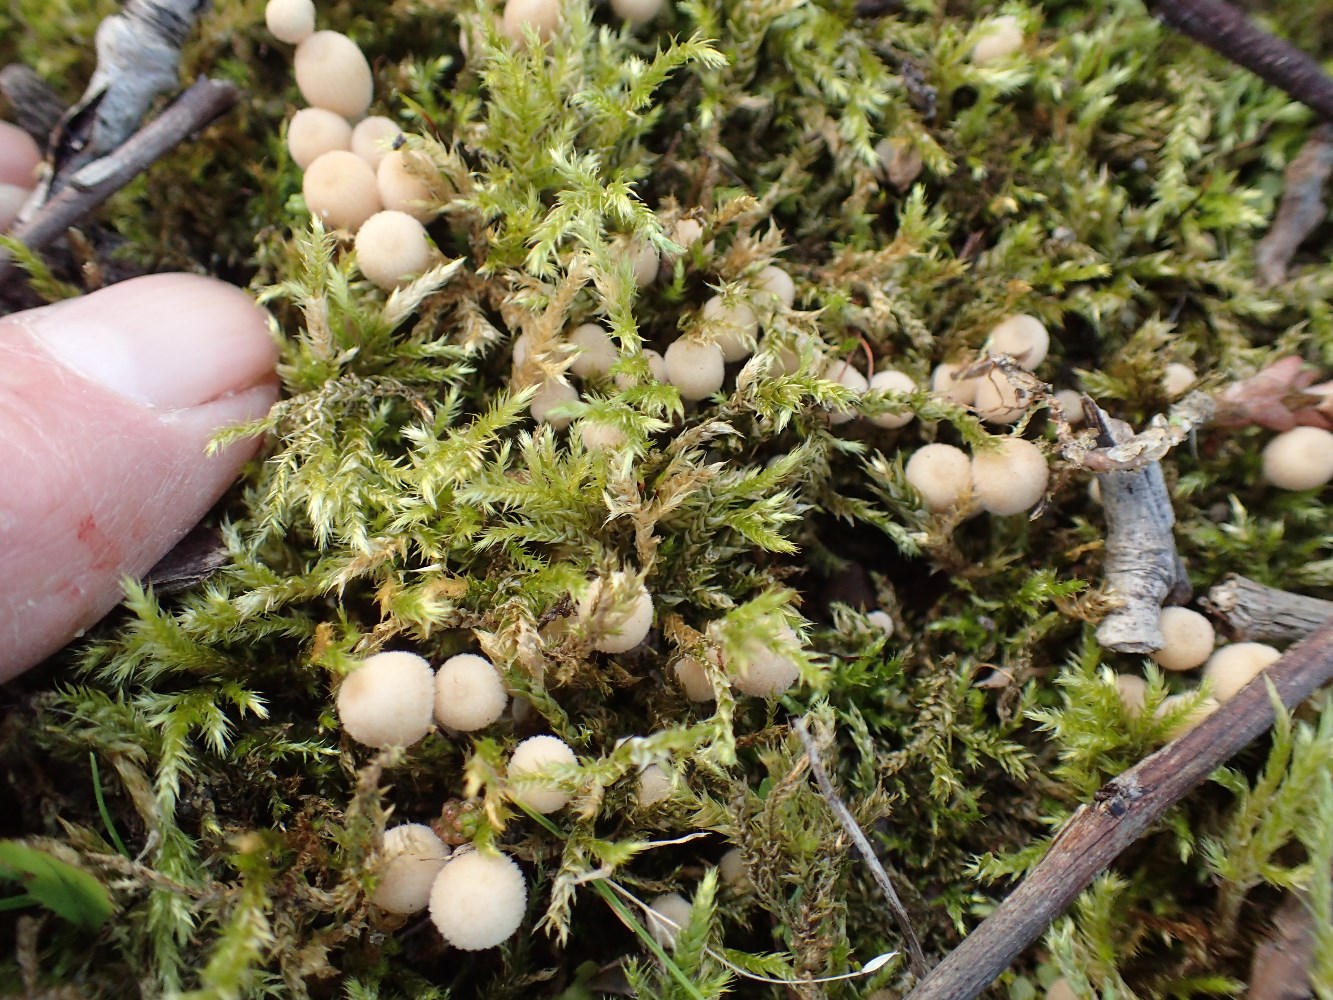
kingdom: Fungi
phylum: Basidiomycota
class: Agaricomycetes
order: Agaricales
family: Psathyrellaceae
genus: Coprinellus
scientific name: Coprinellus disseminatus
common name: bredsået blækhat
